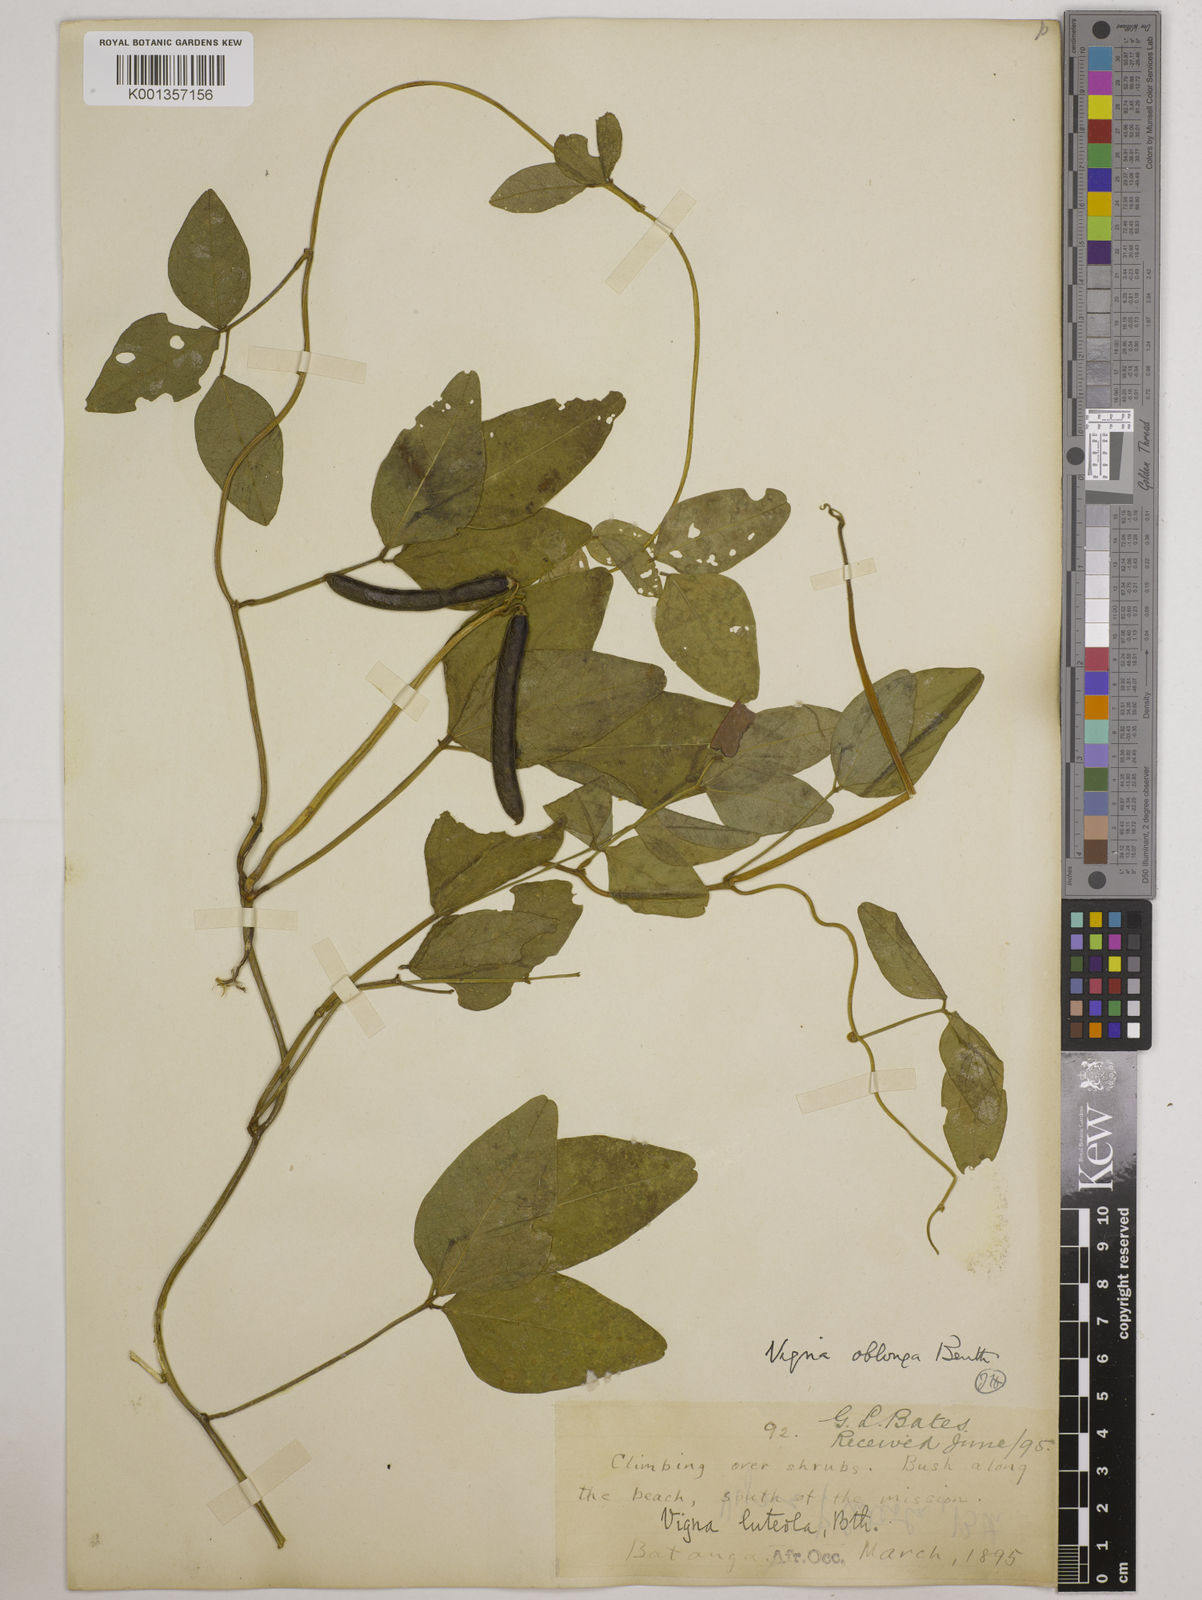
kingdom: Plantae
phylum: Tracheophyta
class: Magnoliopsida
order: Fabales
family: Fabaceae
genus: Vigna
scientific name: Vigna marina
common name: Dune-bean
